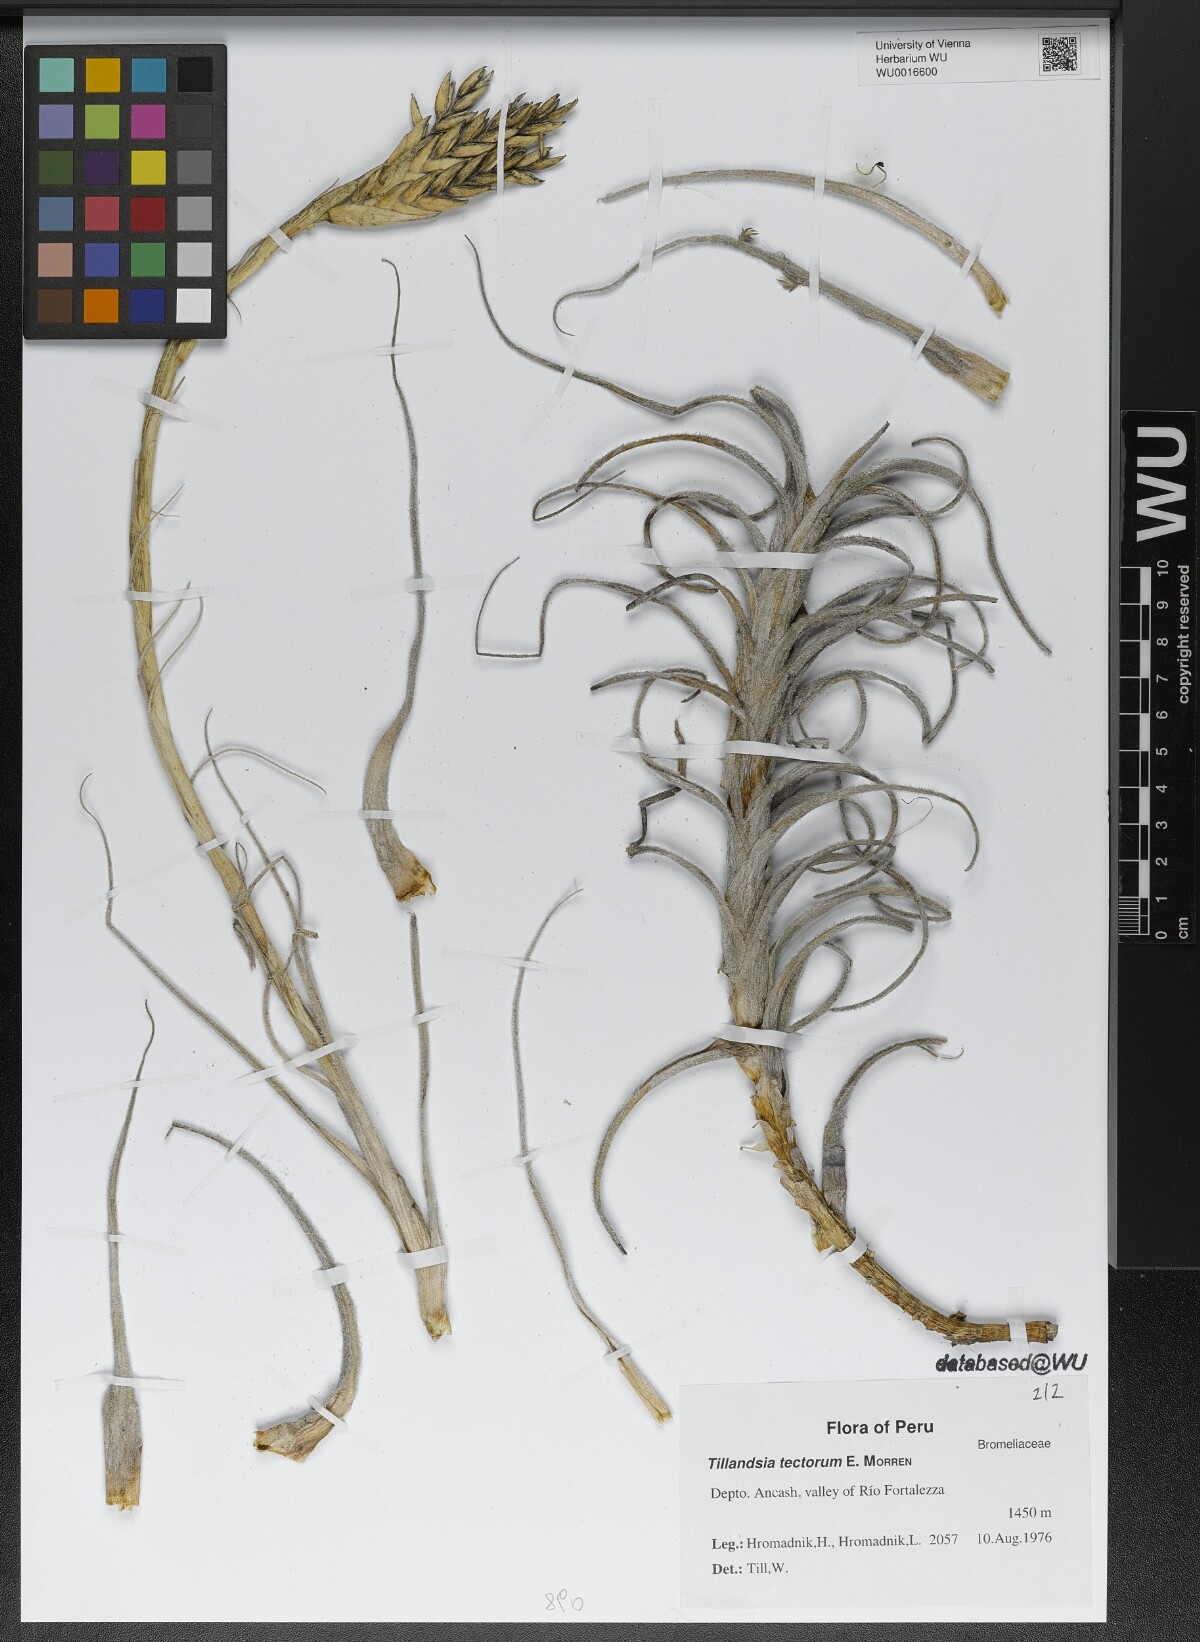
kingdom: Plantae
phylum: Tracheophyta
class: Liliopsida
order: Poales
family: Bromeliaceae
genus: Tillandsia
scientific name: Tillandsia tectorum
